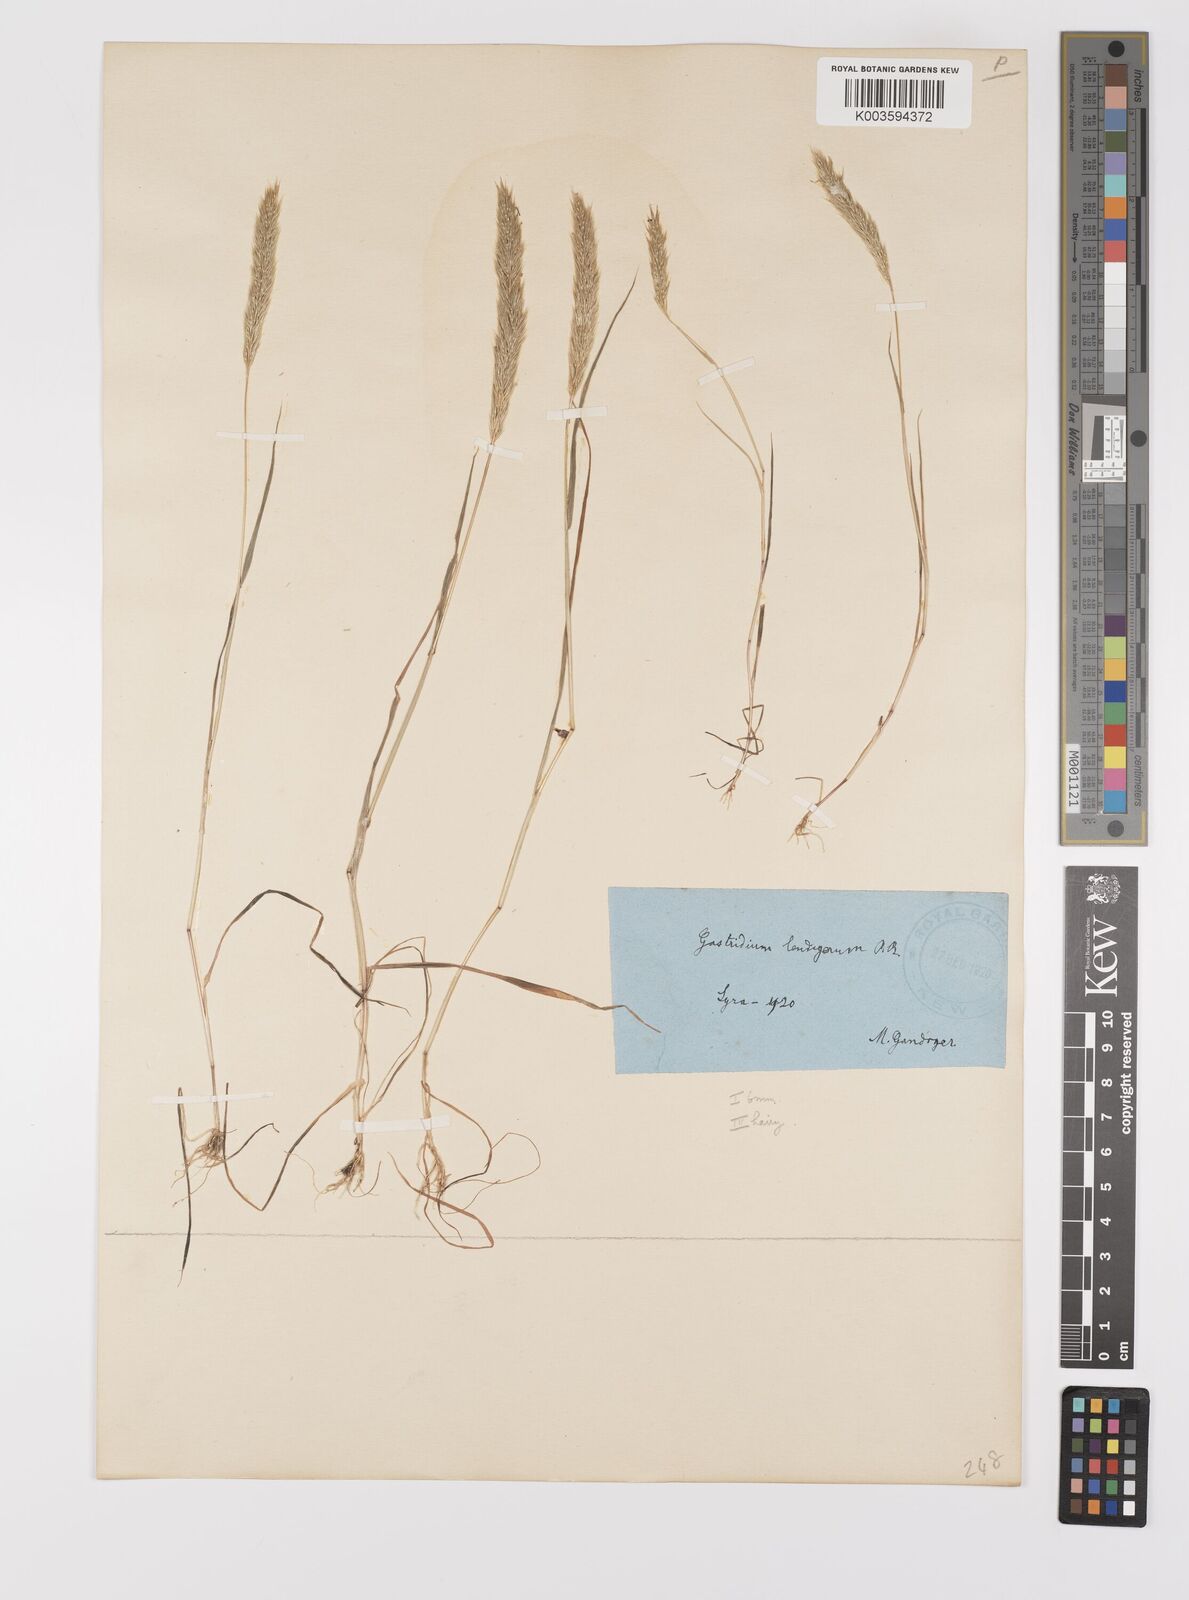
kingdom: Plantae
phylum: Tracheophyta
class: Liliopsida
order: Poales
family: Poaceae
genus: Gastridium
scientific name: Gastridium phleoides
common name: Nit grass
